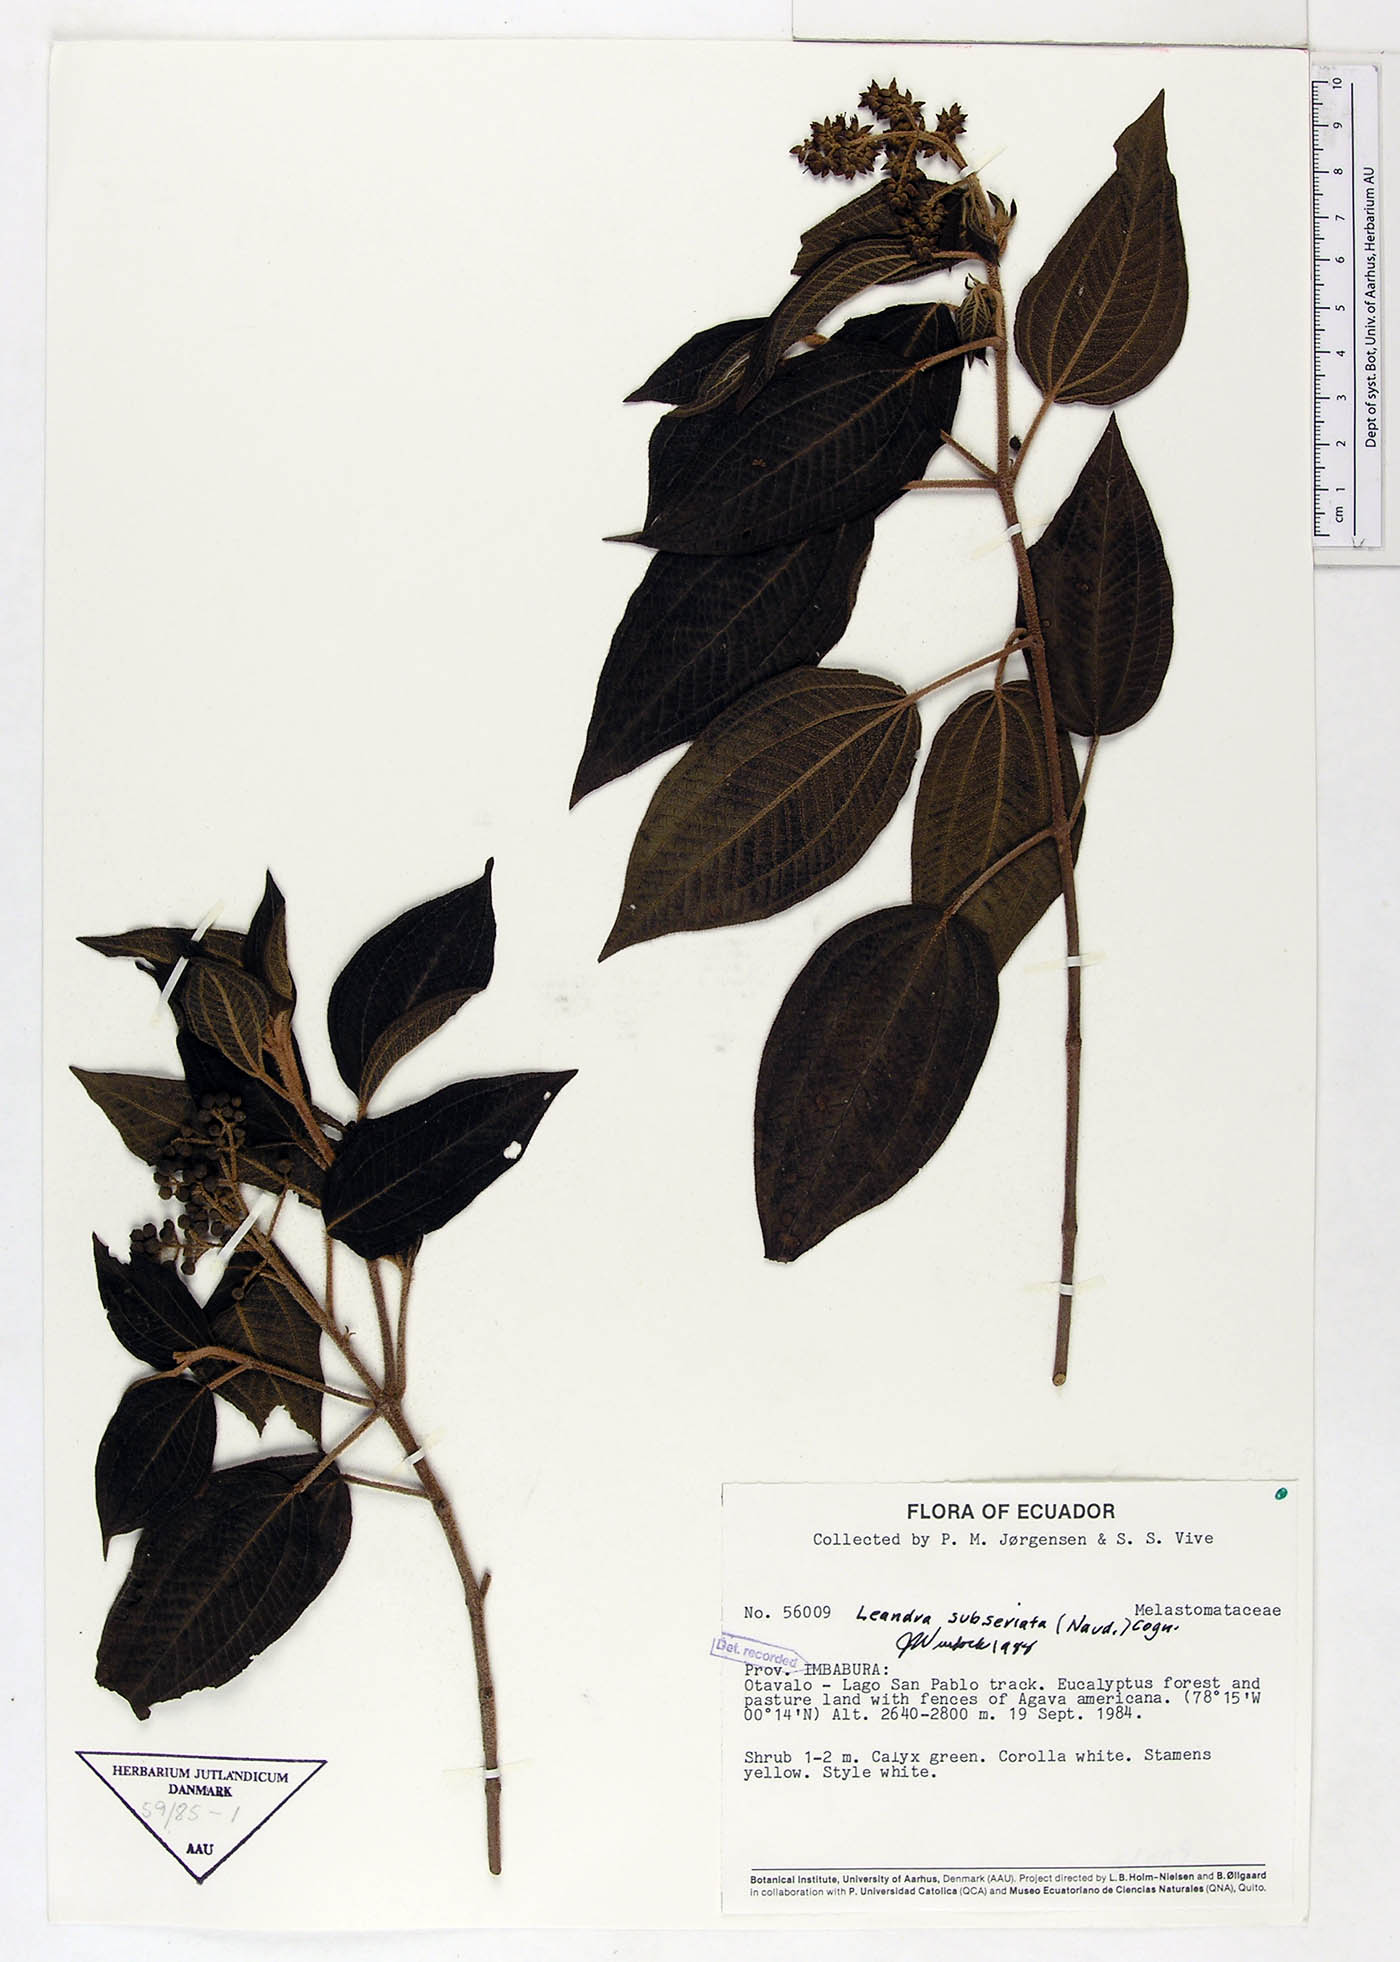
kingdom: Plantae
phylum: Tracheophyta
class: Magnoliopsida
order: Myrtales
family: Melastomataceae
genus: Miconia
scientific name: Miconia subseriata
